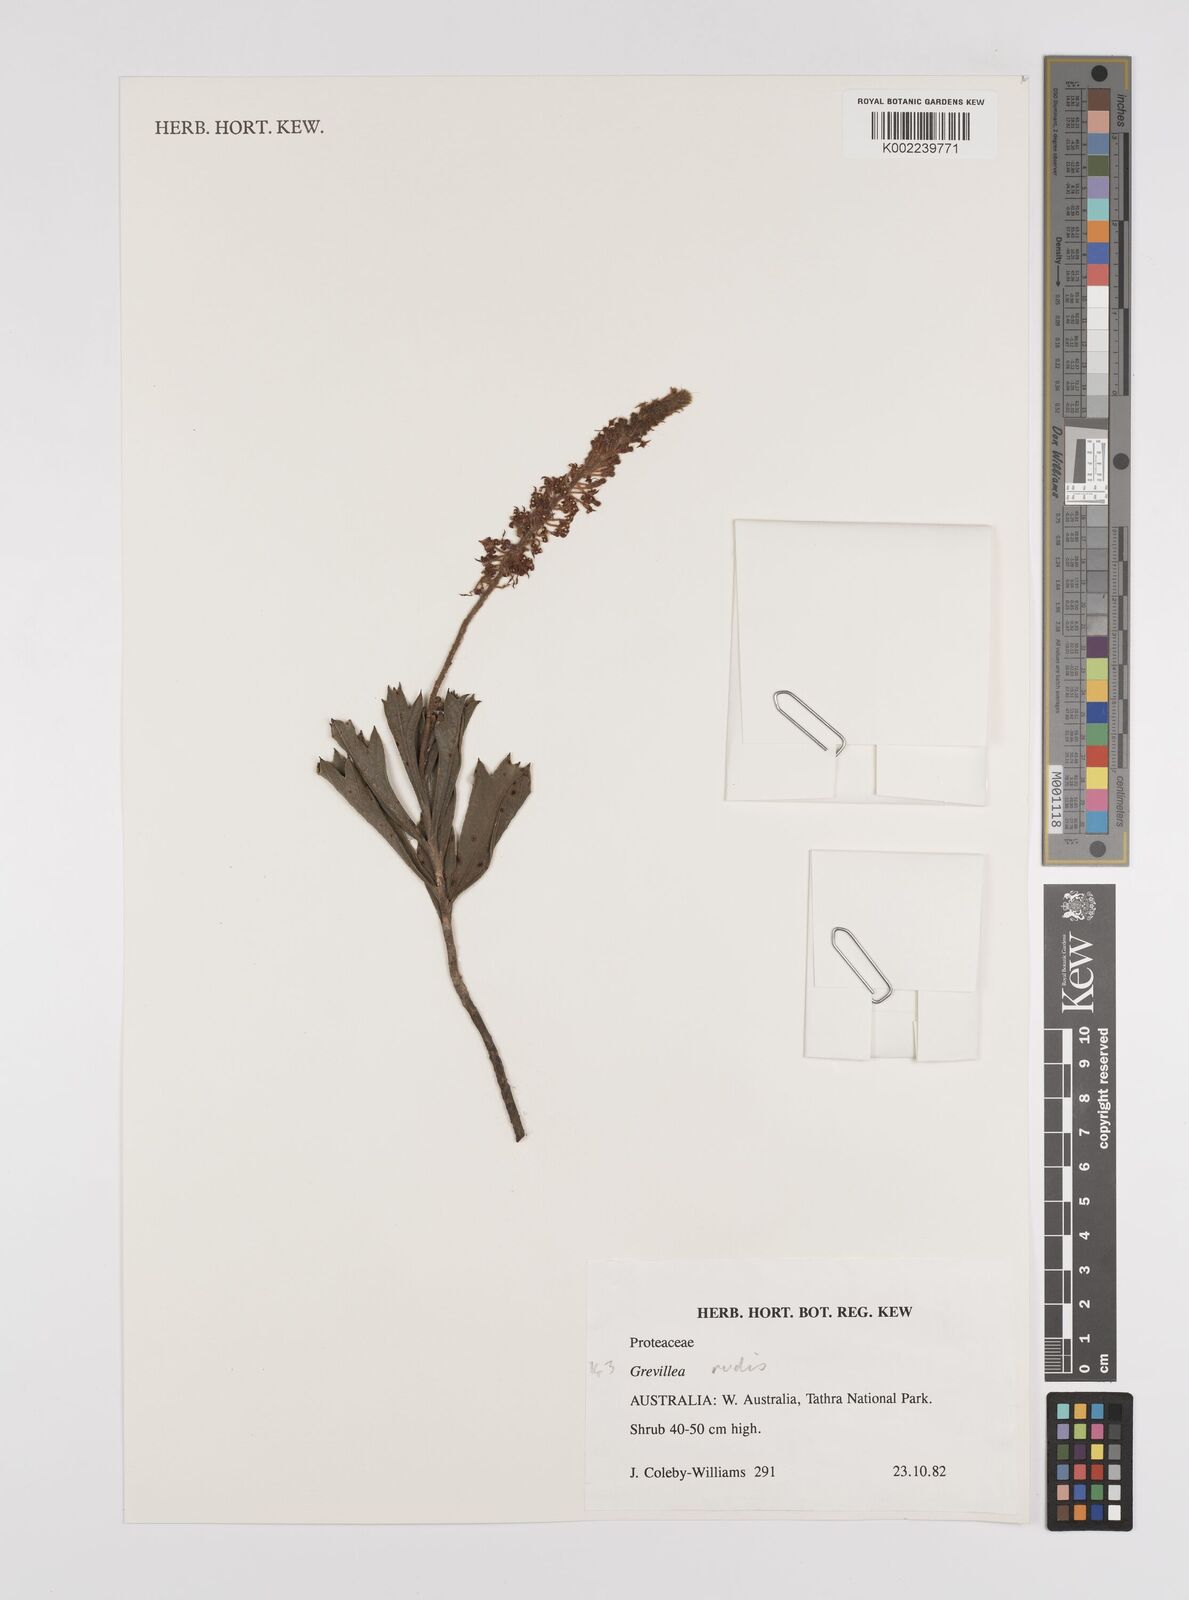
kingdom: Plantae
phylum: Tracheophyta
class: Magnoliopsida
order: Proteales
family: Proteaceae
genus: Grevillea
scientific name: Grevillea
